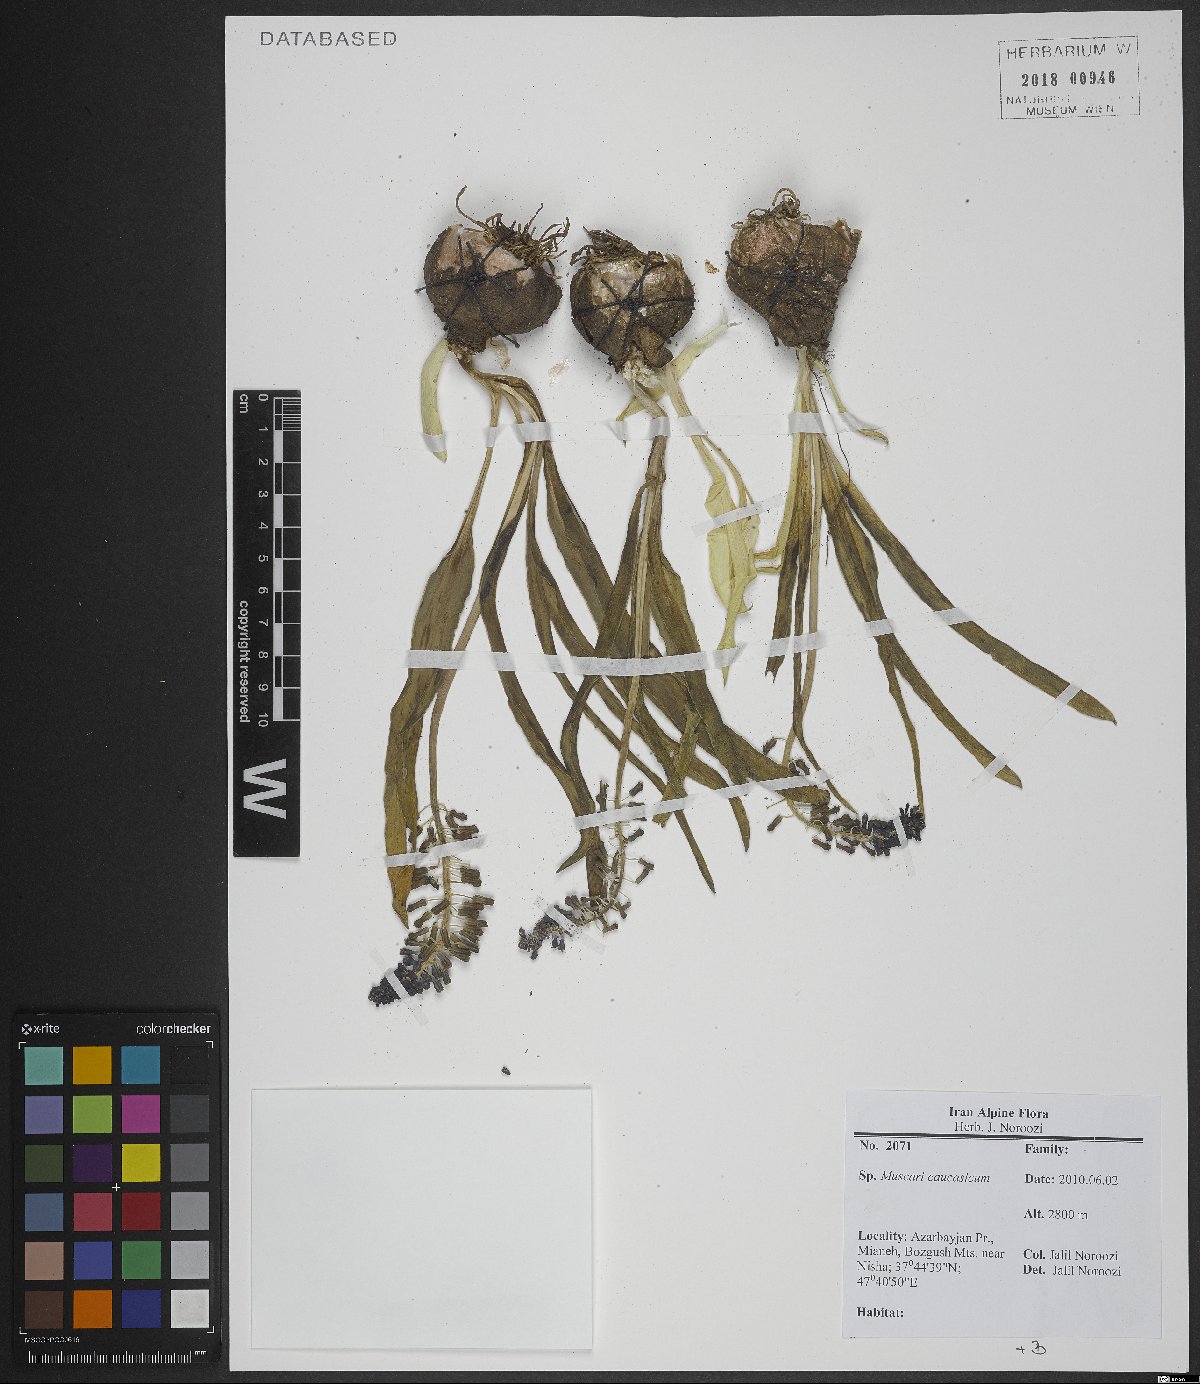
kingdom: Plantae
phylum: Tracheophyta
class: Liliopsida
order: Asparagales
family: Asparagaceae
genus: Muscari
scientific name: Muscari caucasicum
